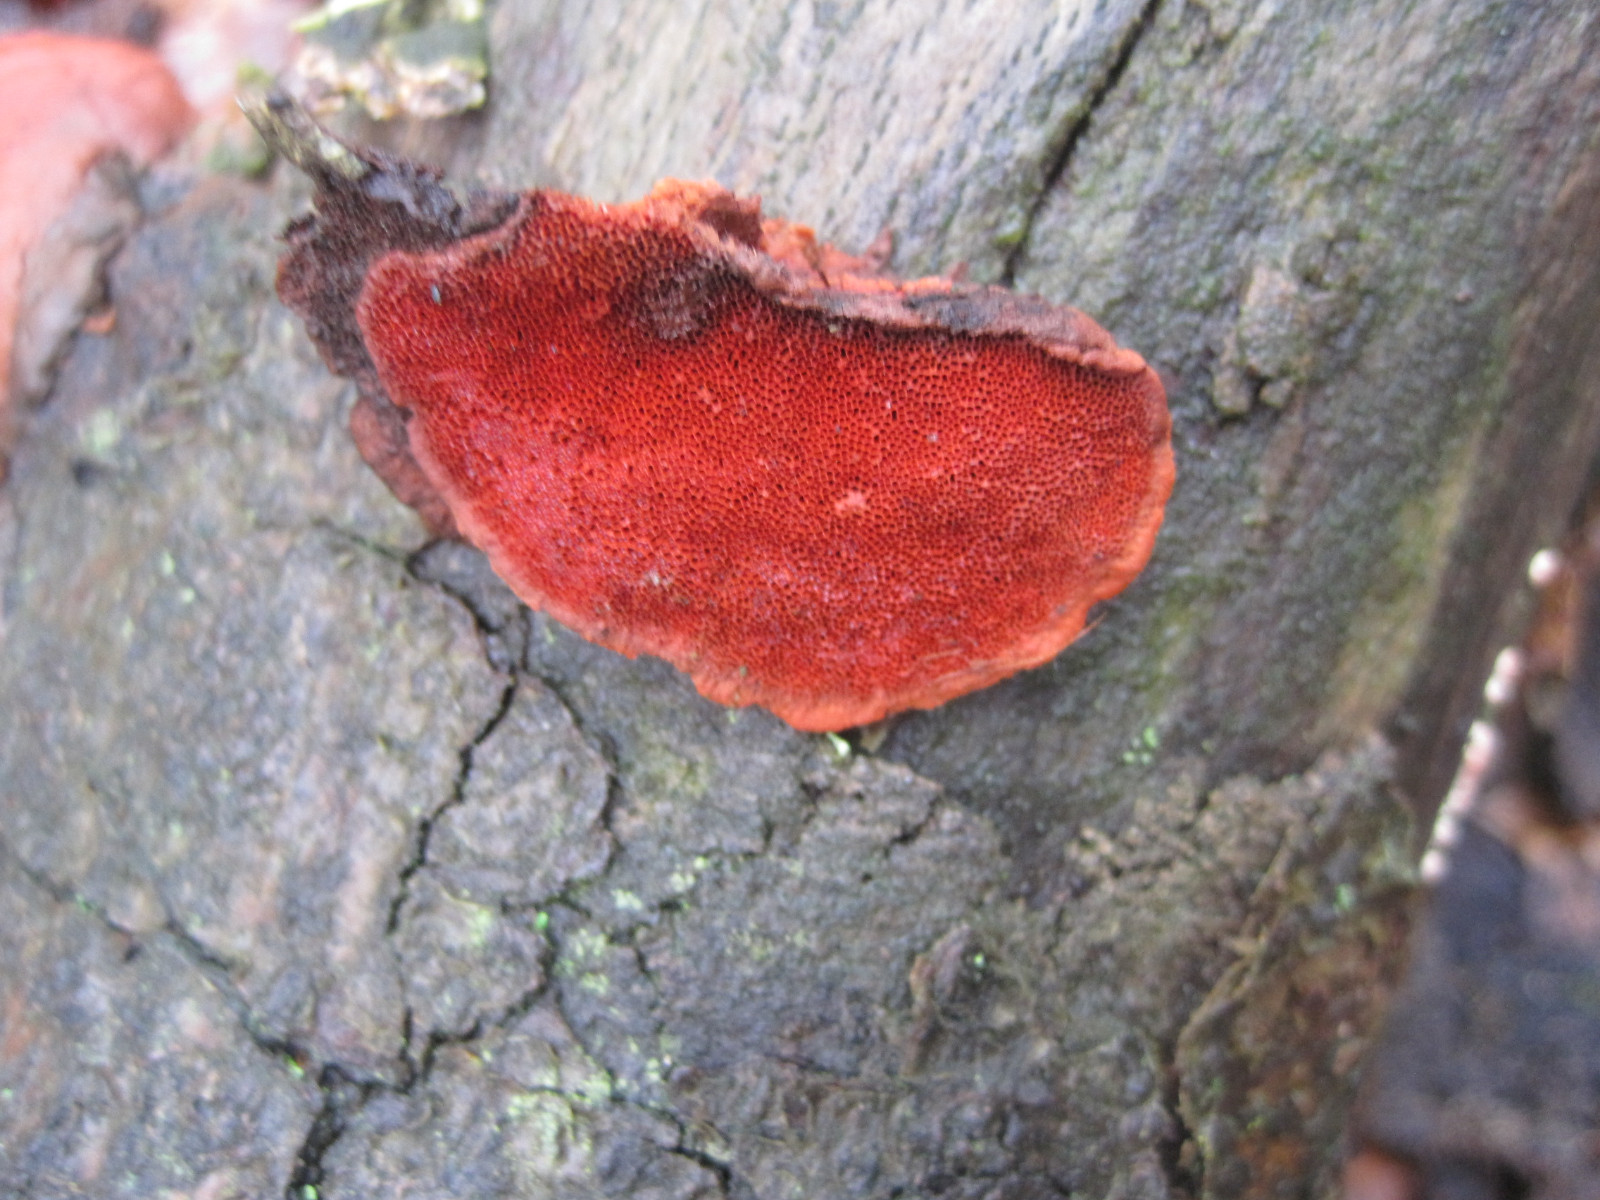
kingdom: Fungi
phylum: Basidiomycota
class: Agaricomycetes
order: Polyporales
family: Polyporaceae
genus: Trametes
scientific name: Trametes cinnabarina
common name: cinnoberporesvamp
